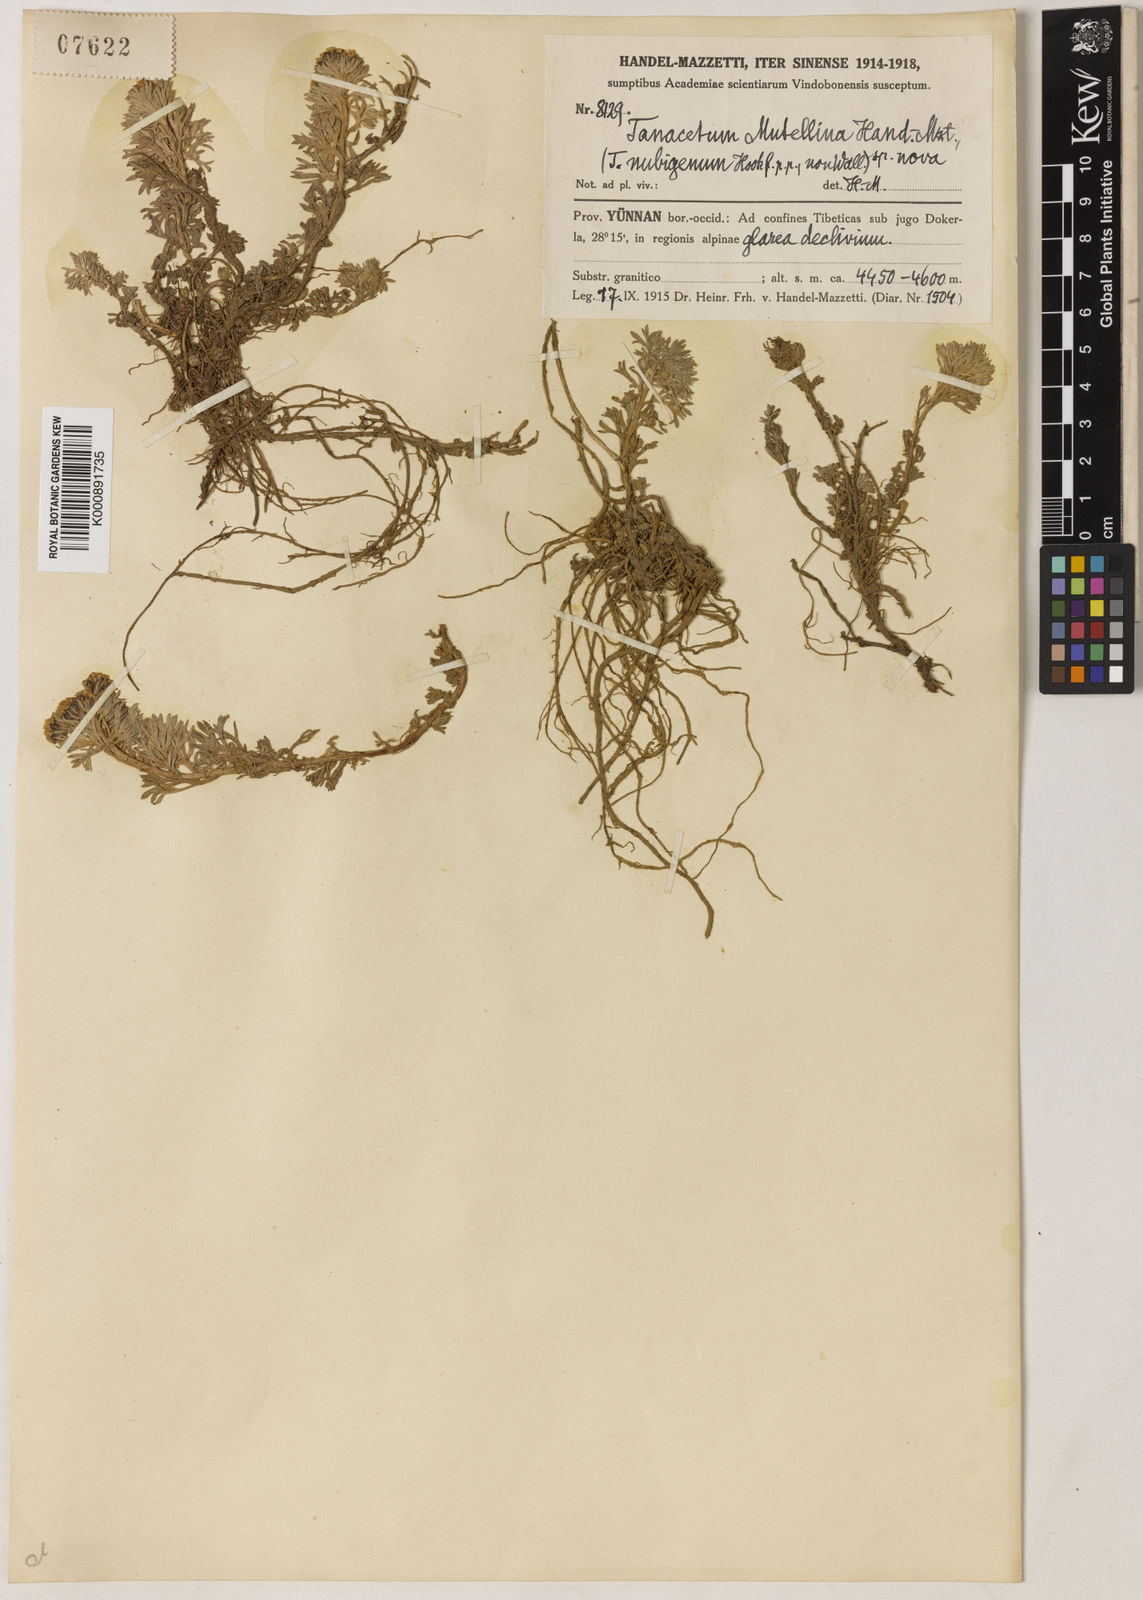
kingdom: Plantae
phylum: Tracheophyta
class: Magnoliopsida
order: Asterales
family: Asteraceae
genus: Ajania
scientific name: Ajania khartensis
